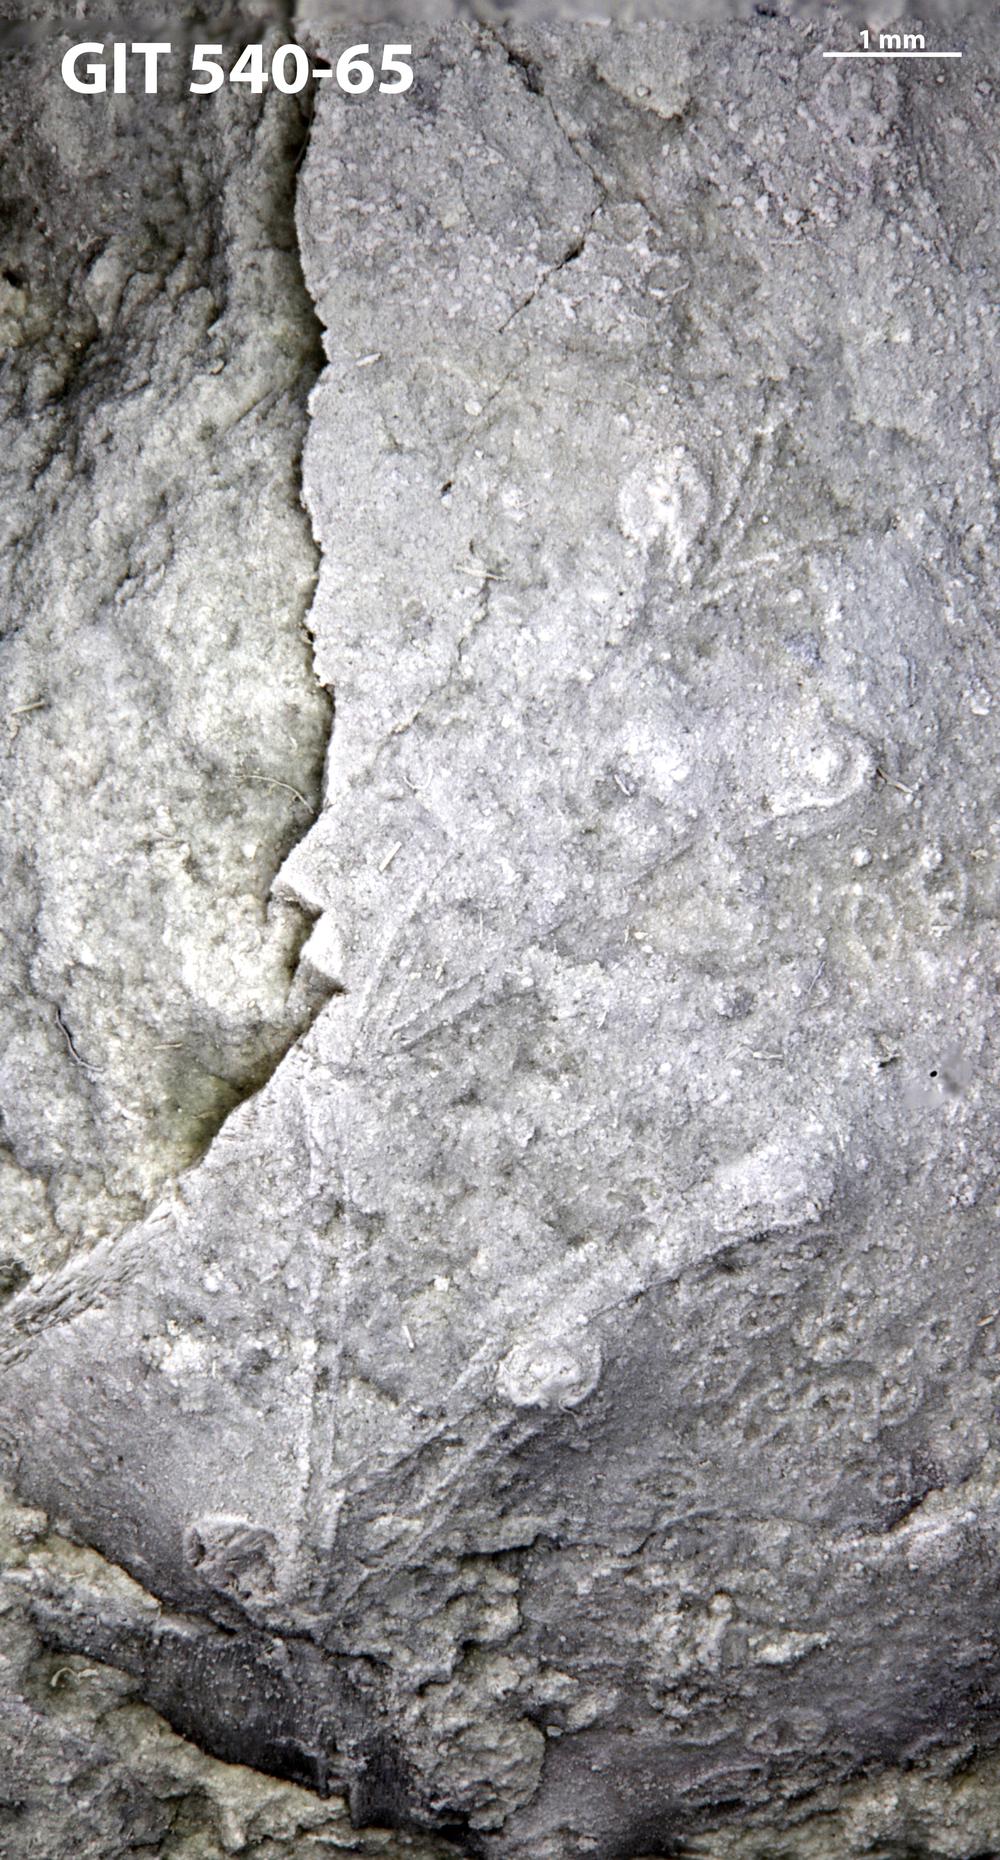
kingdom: Animalia
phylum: Echinodermata
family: Sphaeronitidae
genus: Eucystis
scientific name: Eucystis Glyptosphaerites leuchtenbergi
